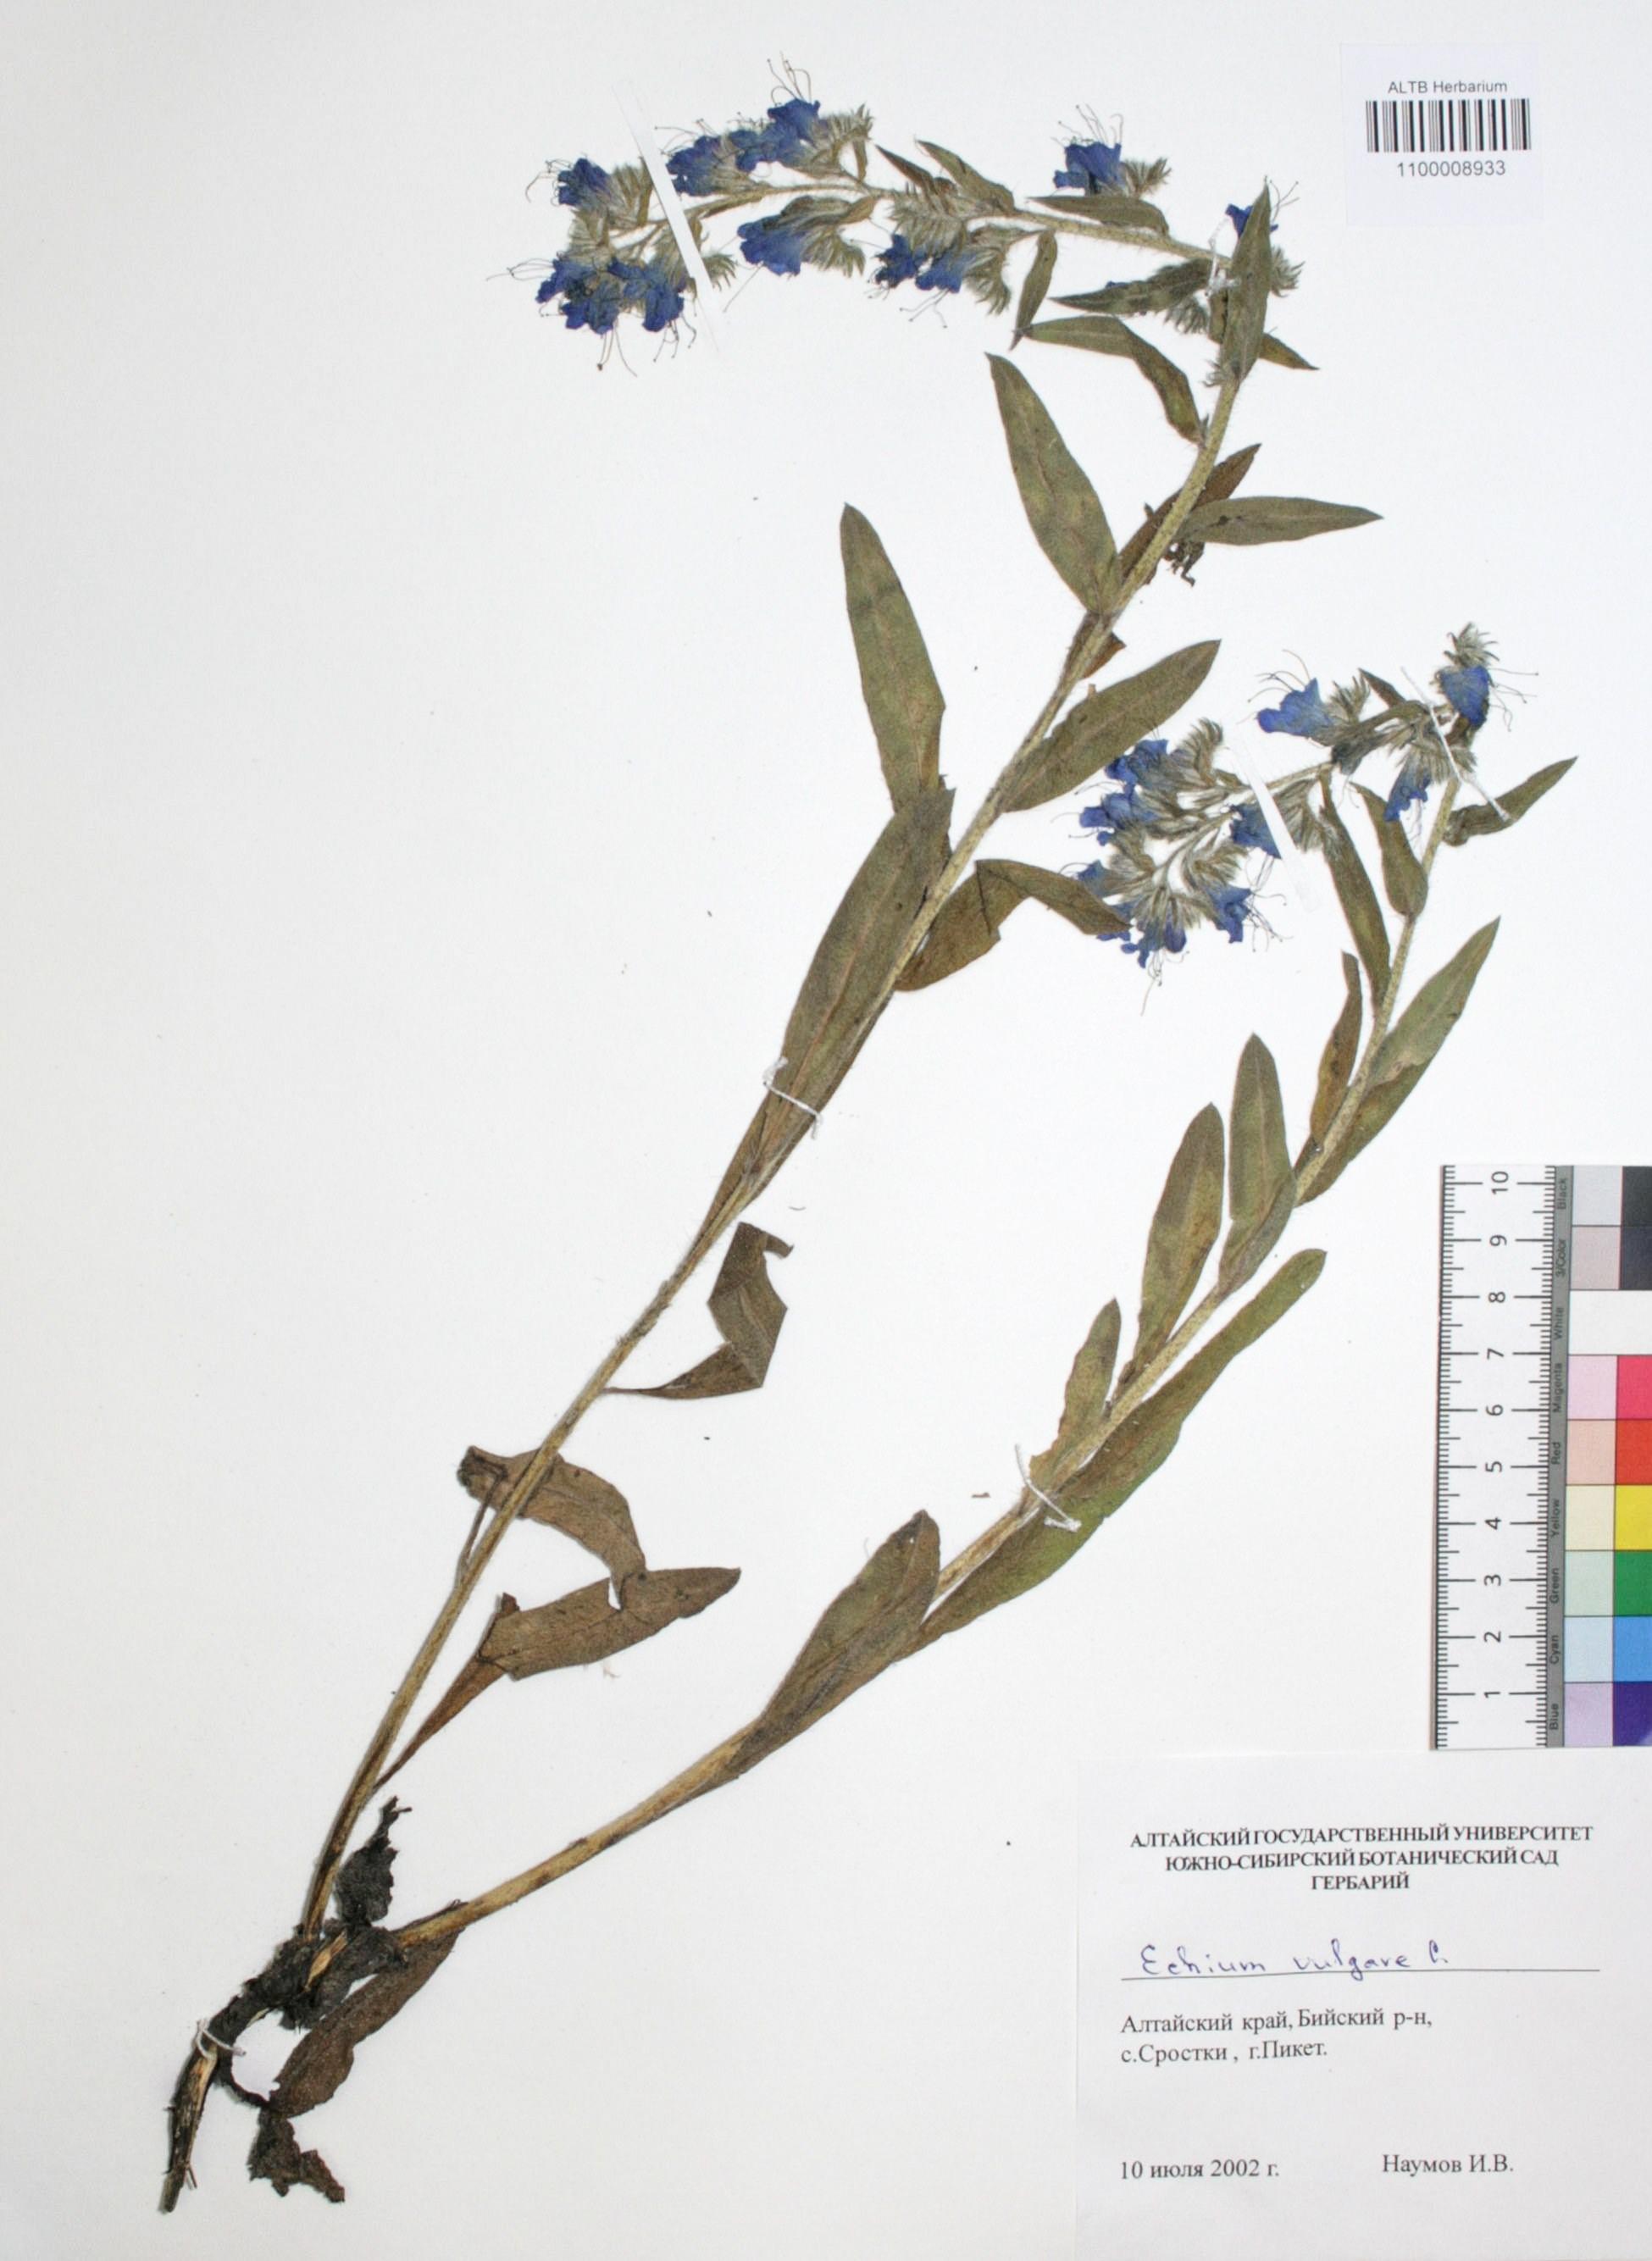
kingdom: Plantae
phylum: Tracheophyta
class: Magnoliopsida
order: Boraginales
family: Boraginaceae
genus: Echium
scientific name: Echium vulgare
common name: Common viper's bugloss
